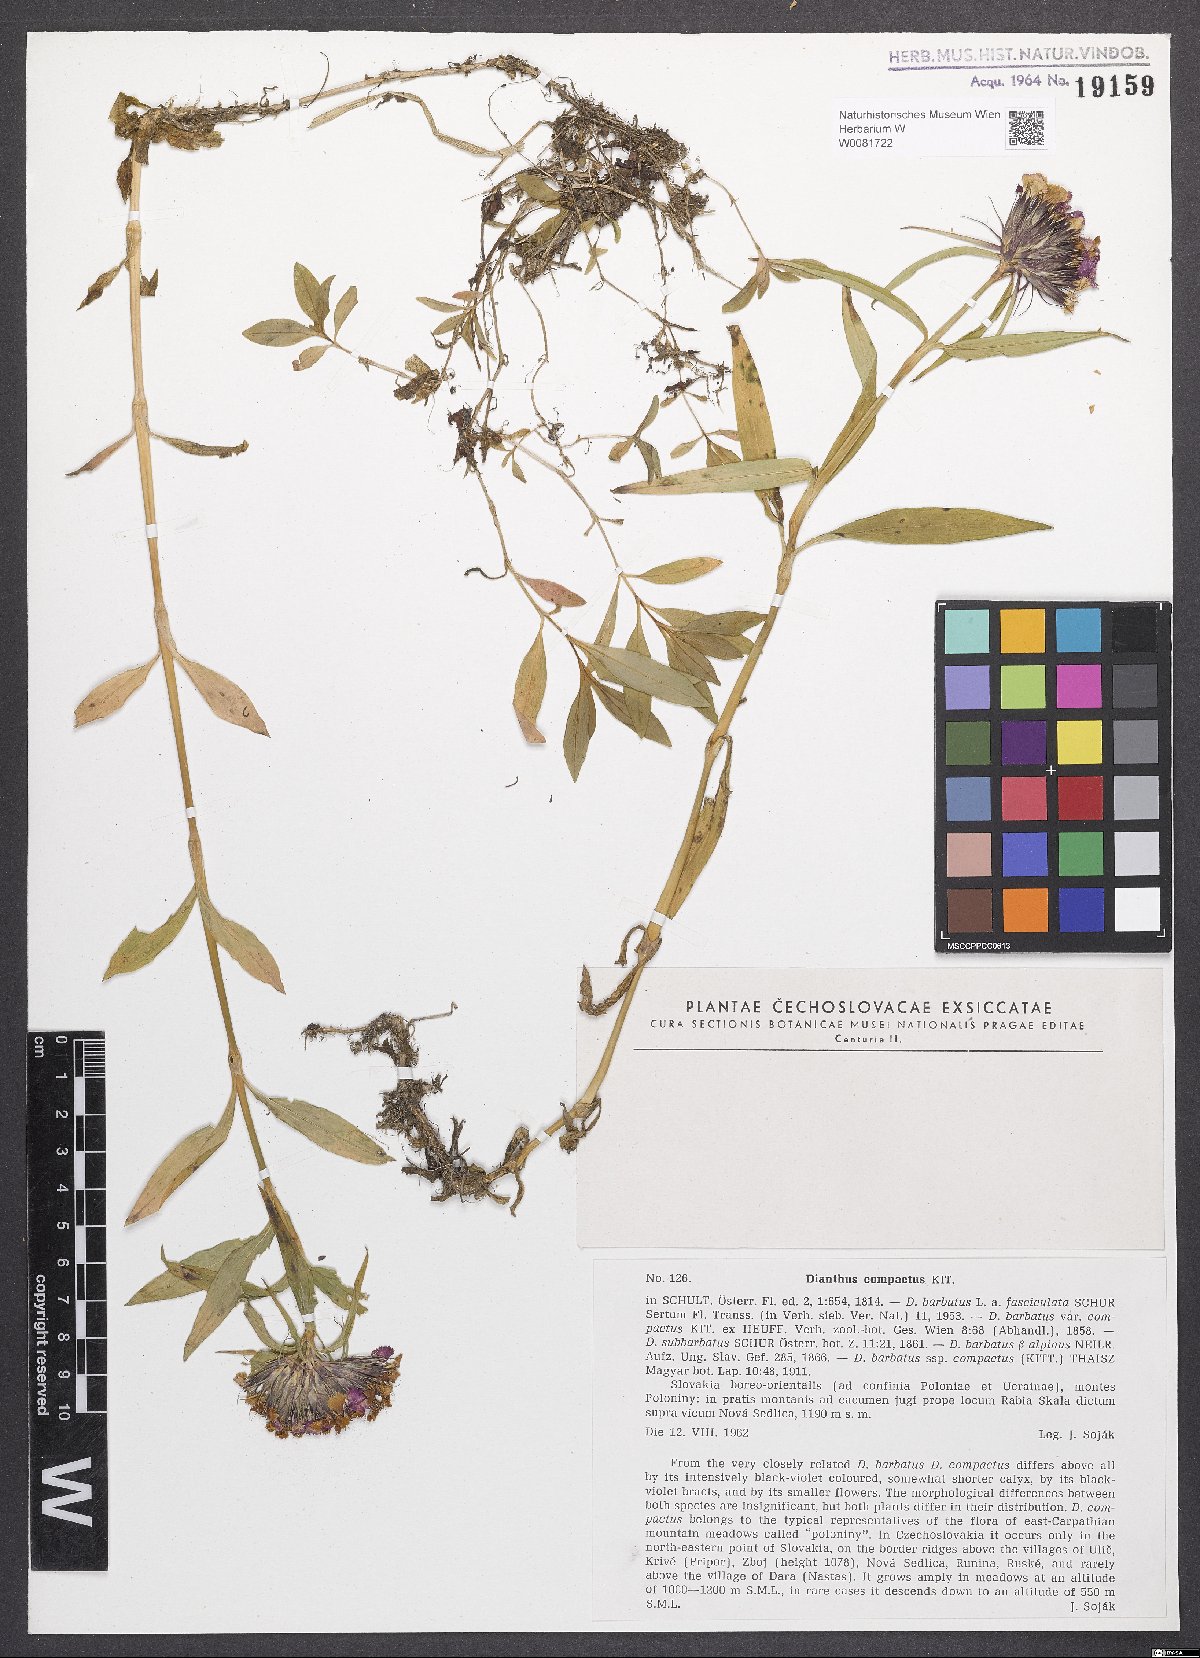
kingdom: Plantae
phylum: Tracheophyta
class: Magnoliopsida
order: Caryophyllales
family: Caryophyllaceae
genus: Dianthus
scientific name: Dianthus barbatus
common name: Sweet-william
